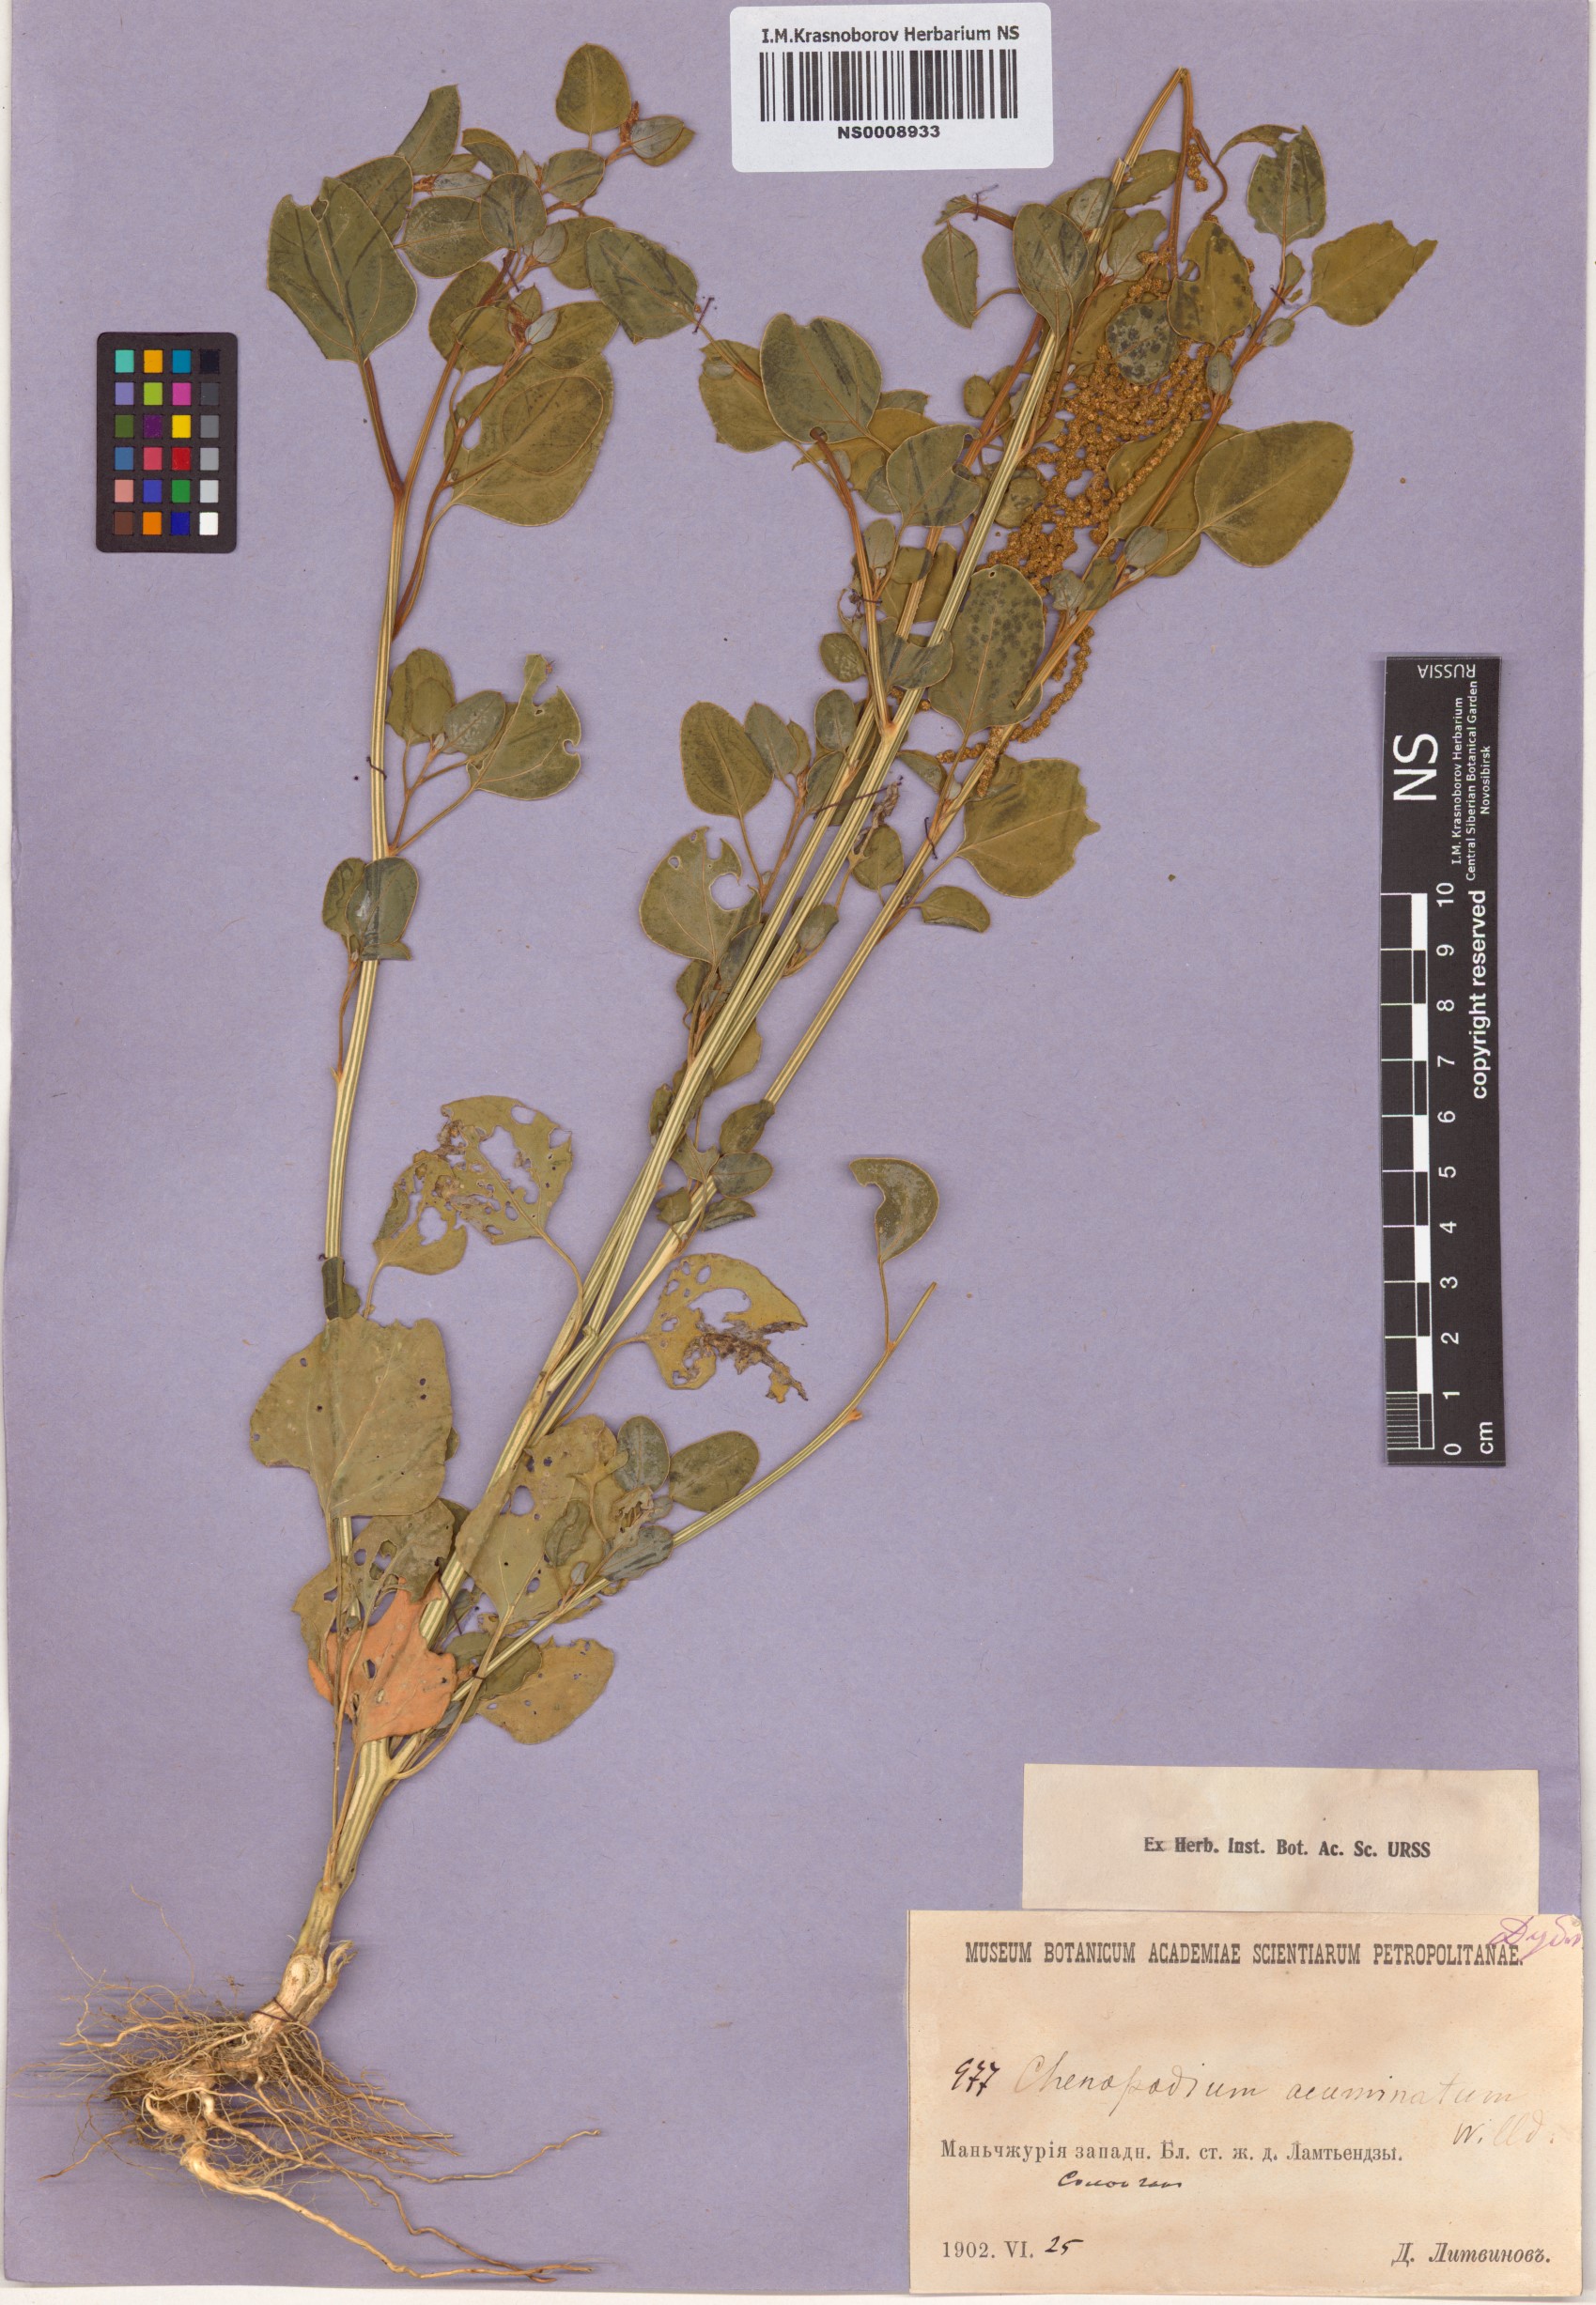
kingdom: Plantae
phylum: Tracheophyta
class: Magnoliopsida
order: Caryophyllales
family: Amaranthaceae
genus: Chenopodium
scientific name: Chenopodium acuminatum
